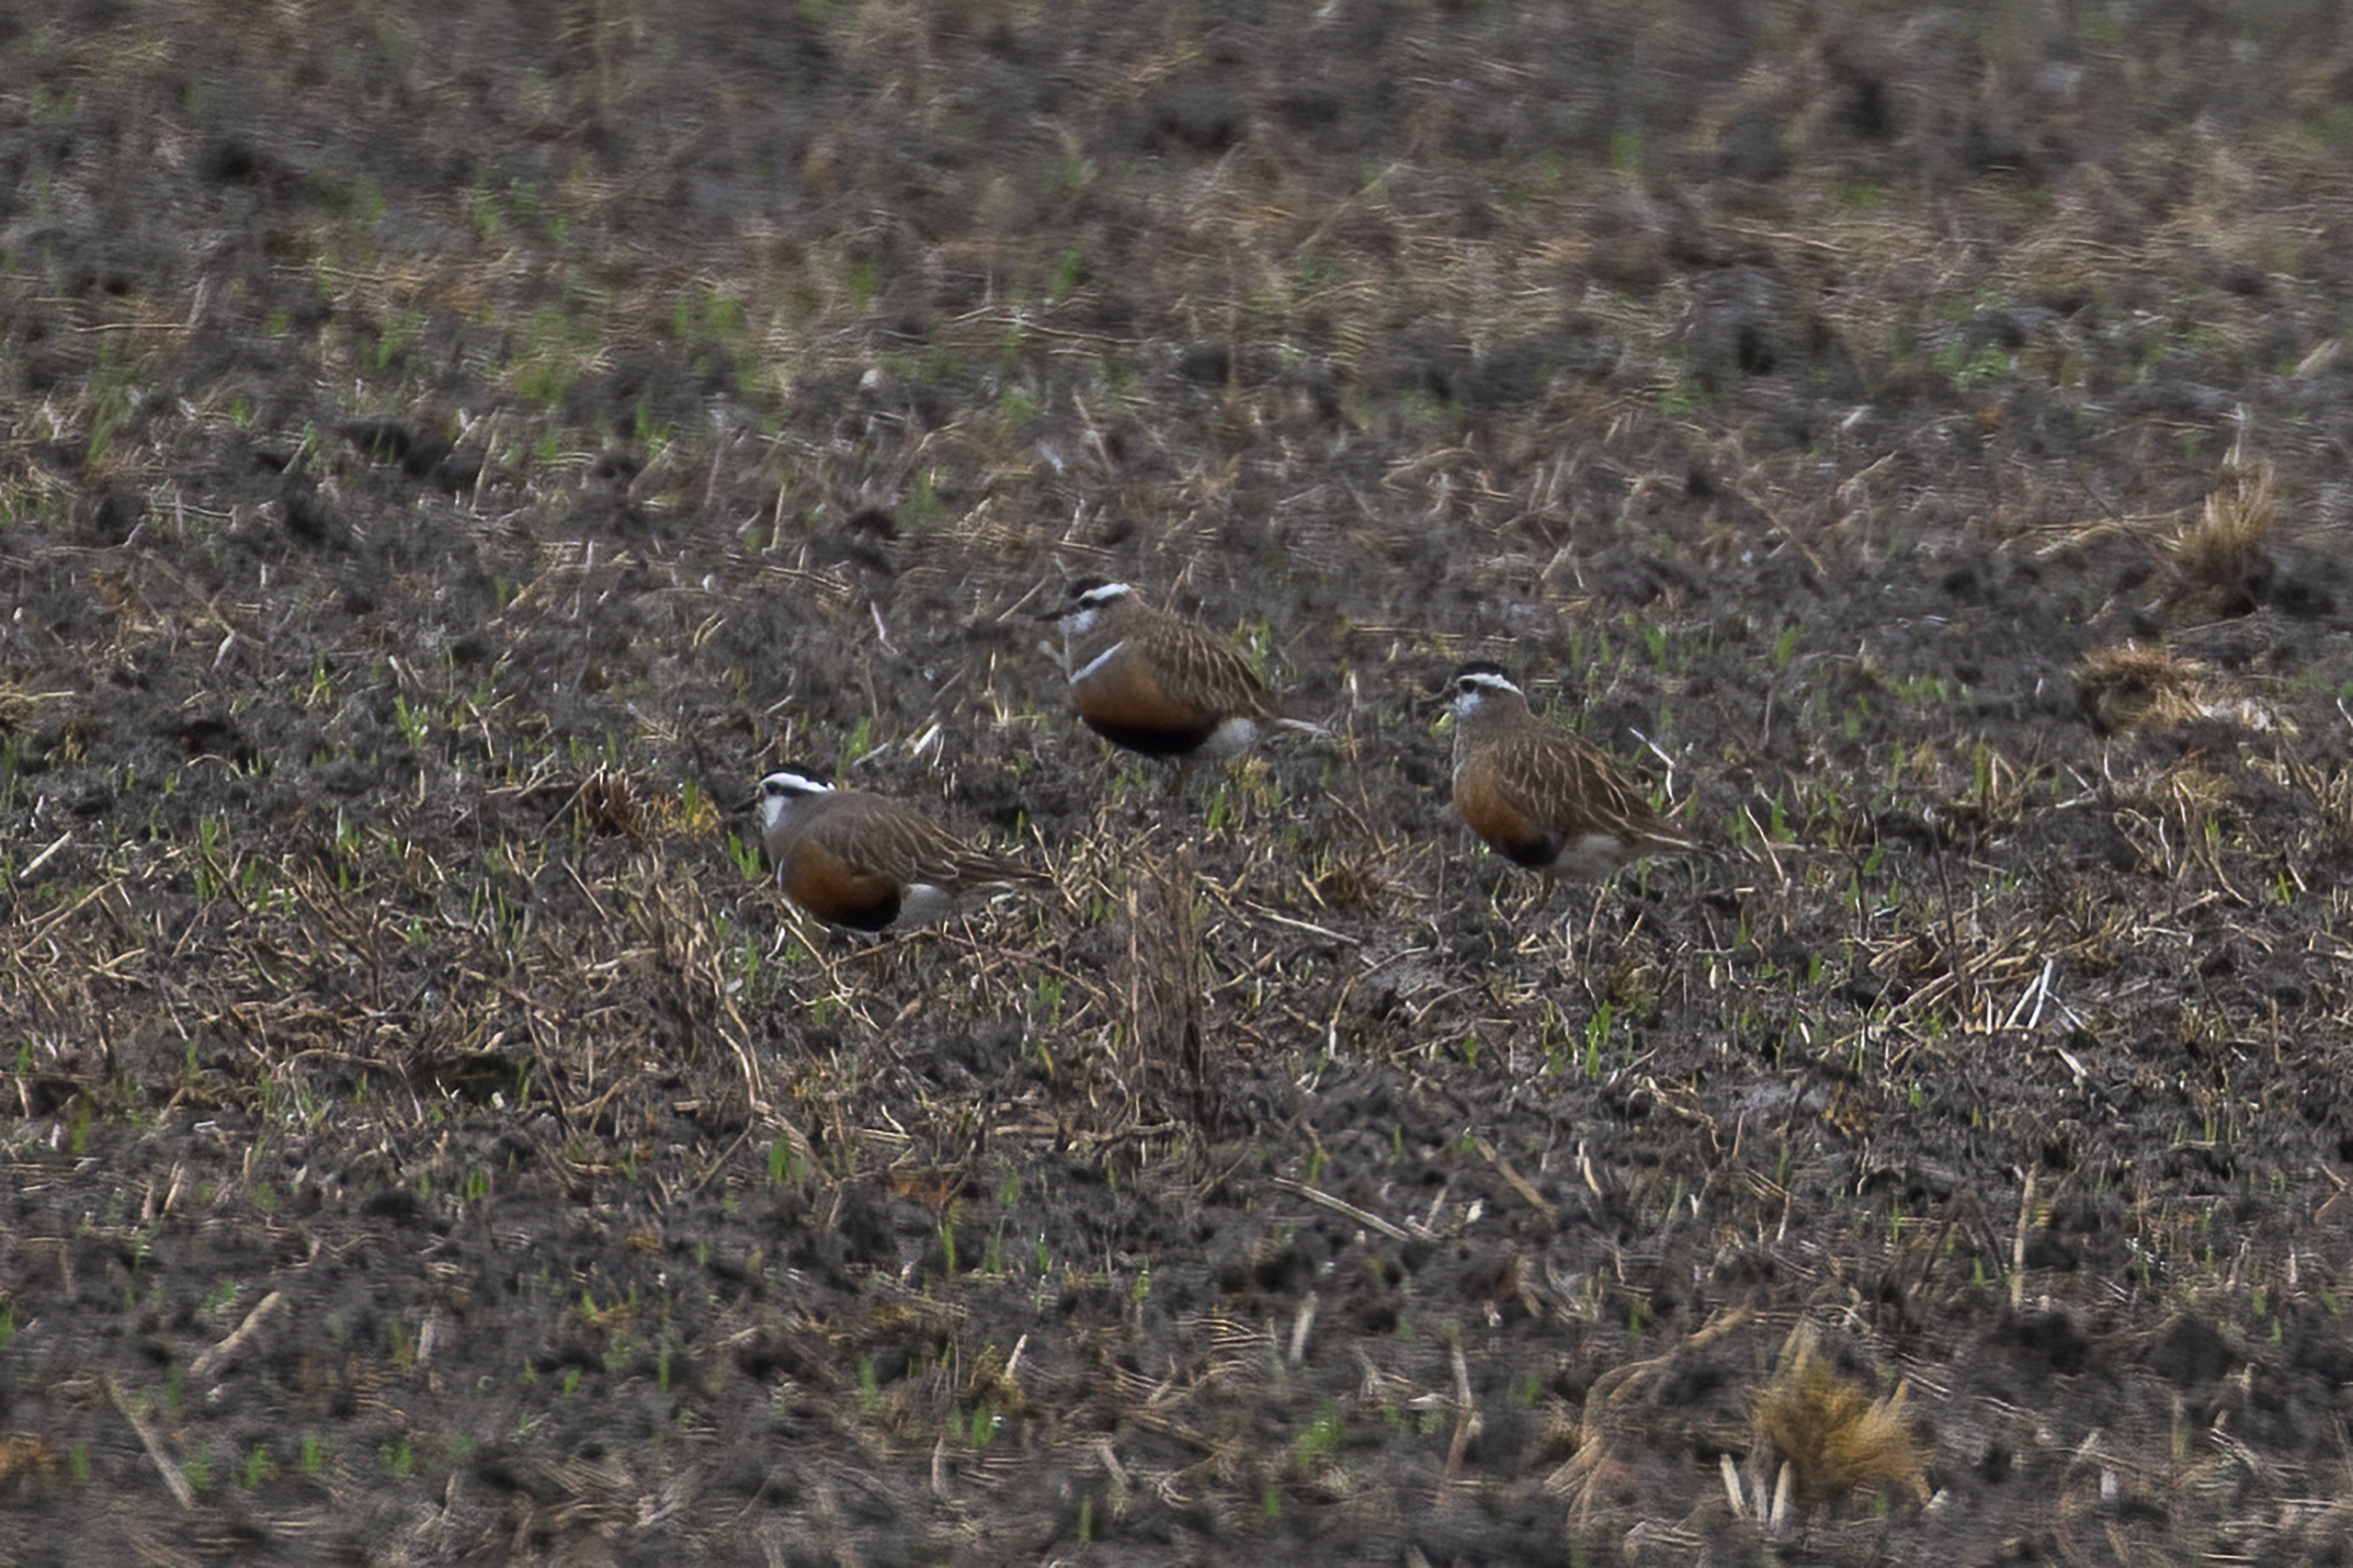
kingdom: Animalia
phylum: Chordata
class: Aves
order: Charadriiformes
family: Charadriidae
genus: Charadrius
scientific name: Charadrius morinellus
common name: Pomeransfugl
